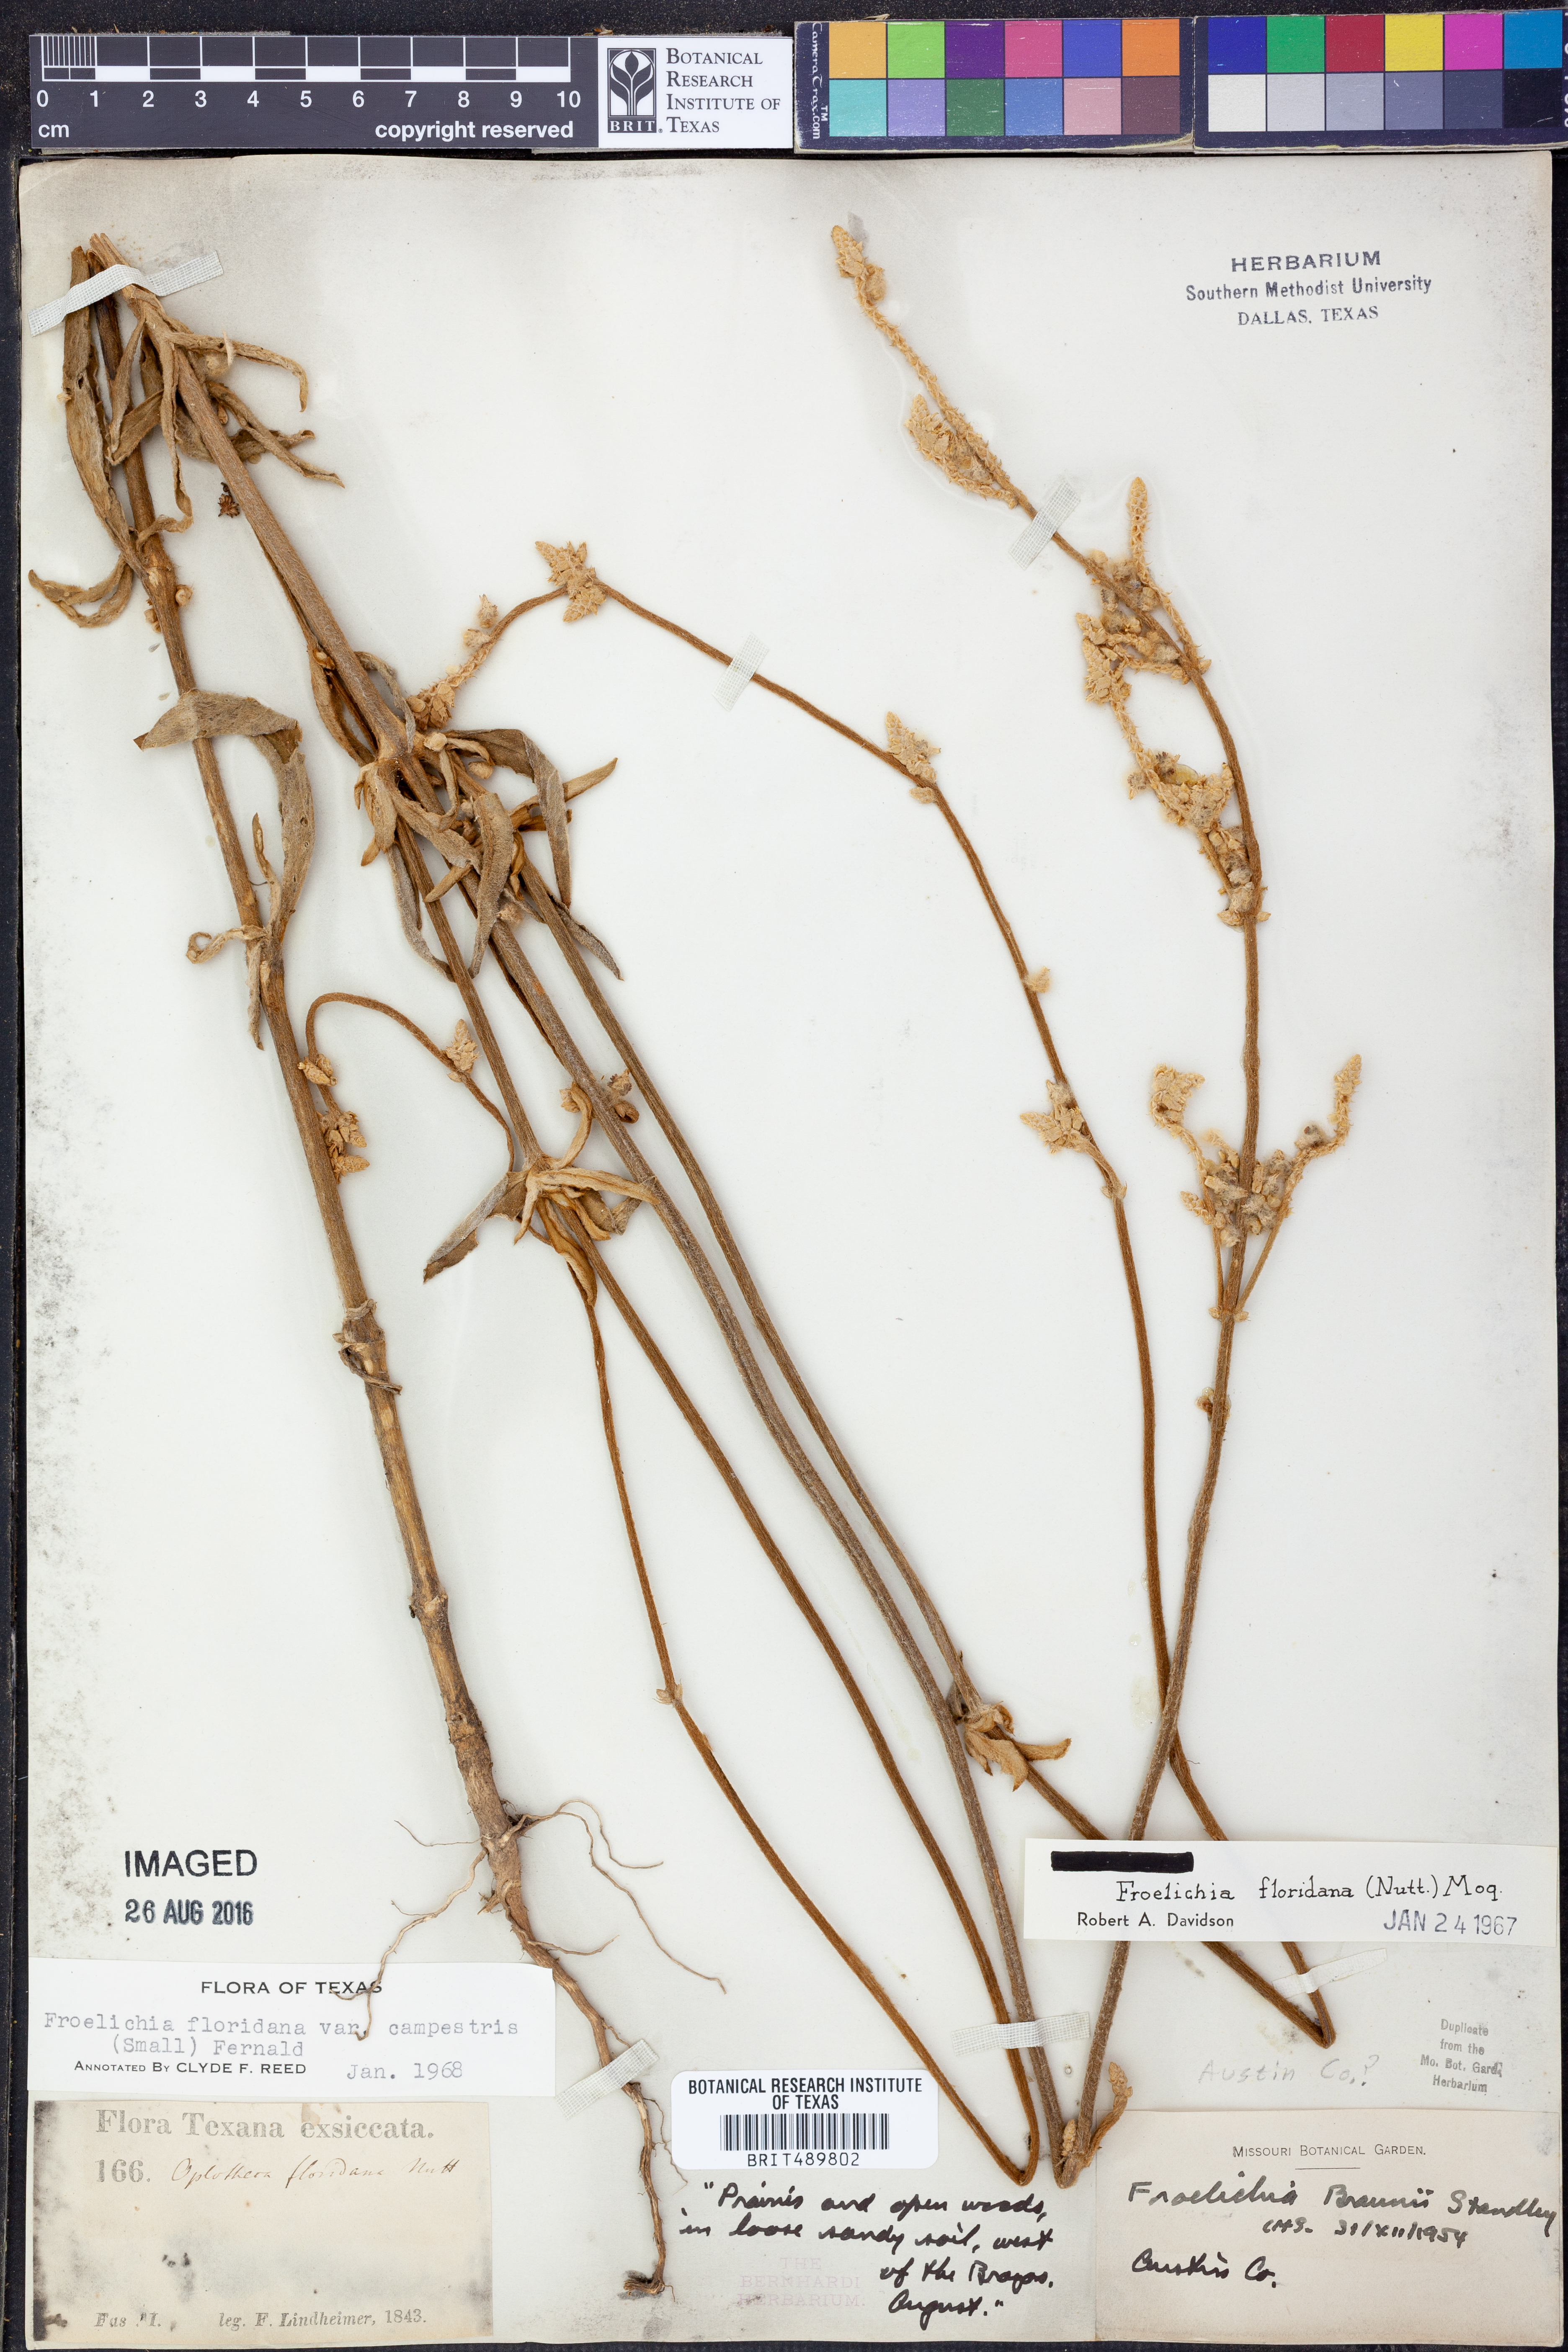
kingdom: Plantae
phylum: Tracheophyta
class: Magnoliopsida
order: Caryophyllales
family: Amaranthaceae
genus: Froelichia
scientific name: Froelichia floridana
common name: Florida snake-cotton
